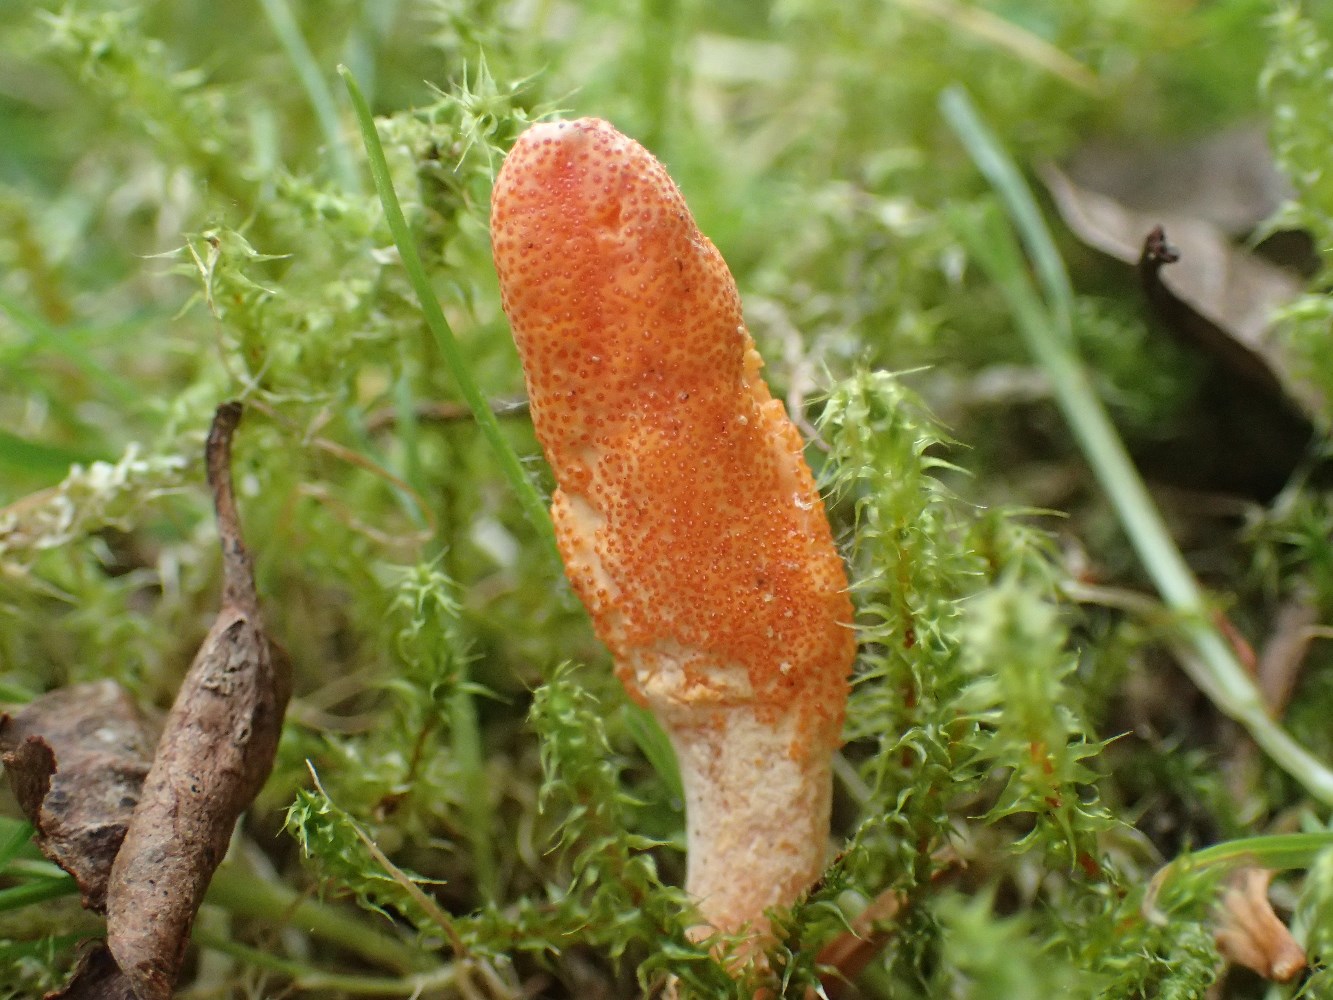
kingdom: Fungi
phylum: Ascomycota
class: Sordariomycetes
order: Hypocreales
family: Cordycipitaceae
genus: Cordyceps
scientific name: Cordyceps militaris
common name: puppe-snyltekølle
